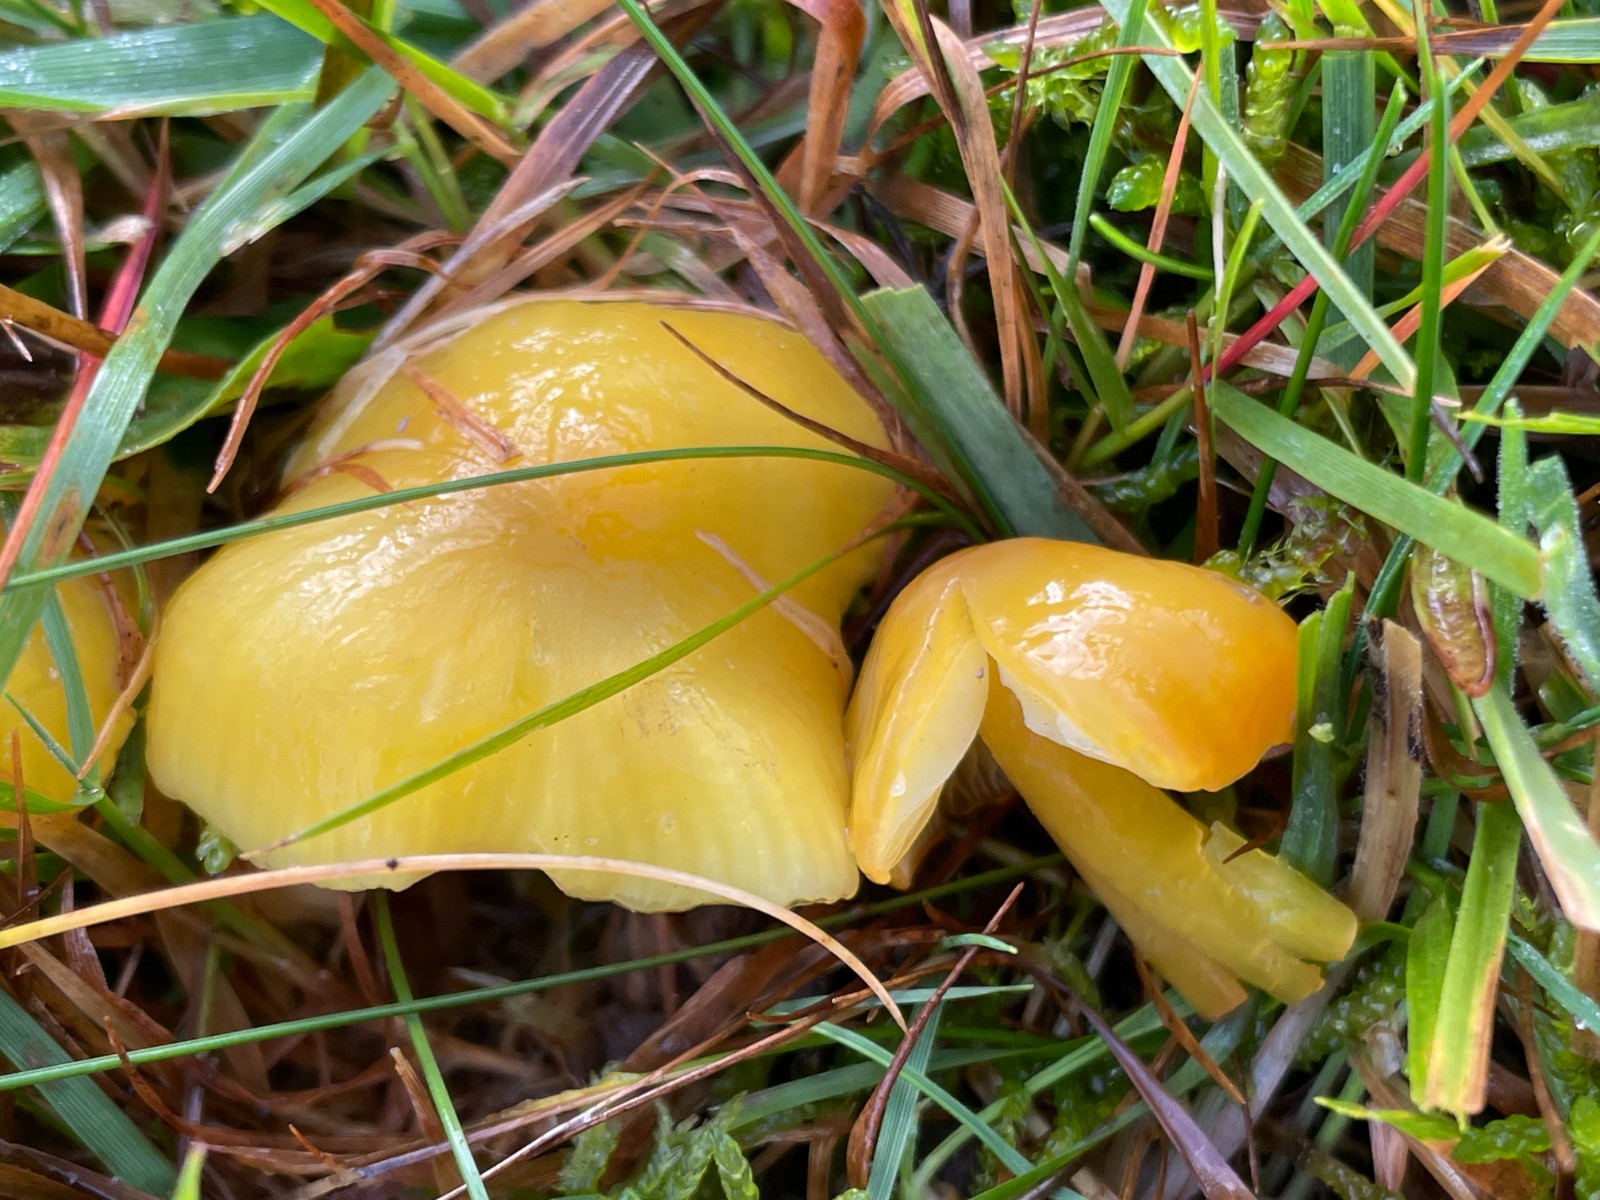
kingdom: Fungi
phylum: Basidiomycota
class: Agaricomycetes
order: Agaricales
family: Hygrophoraceae
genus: Hygrocybe
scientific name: Hygrocybe chlorophana
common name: gul vokshat
